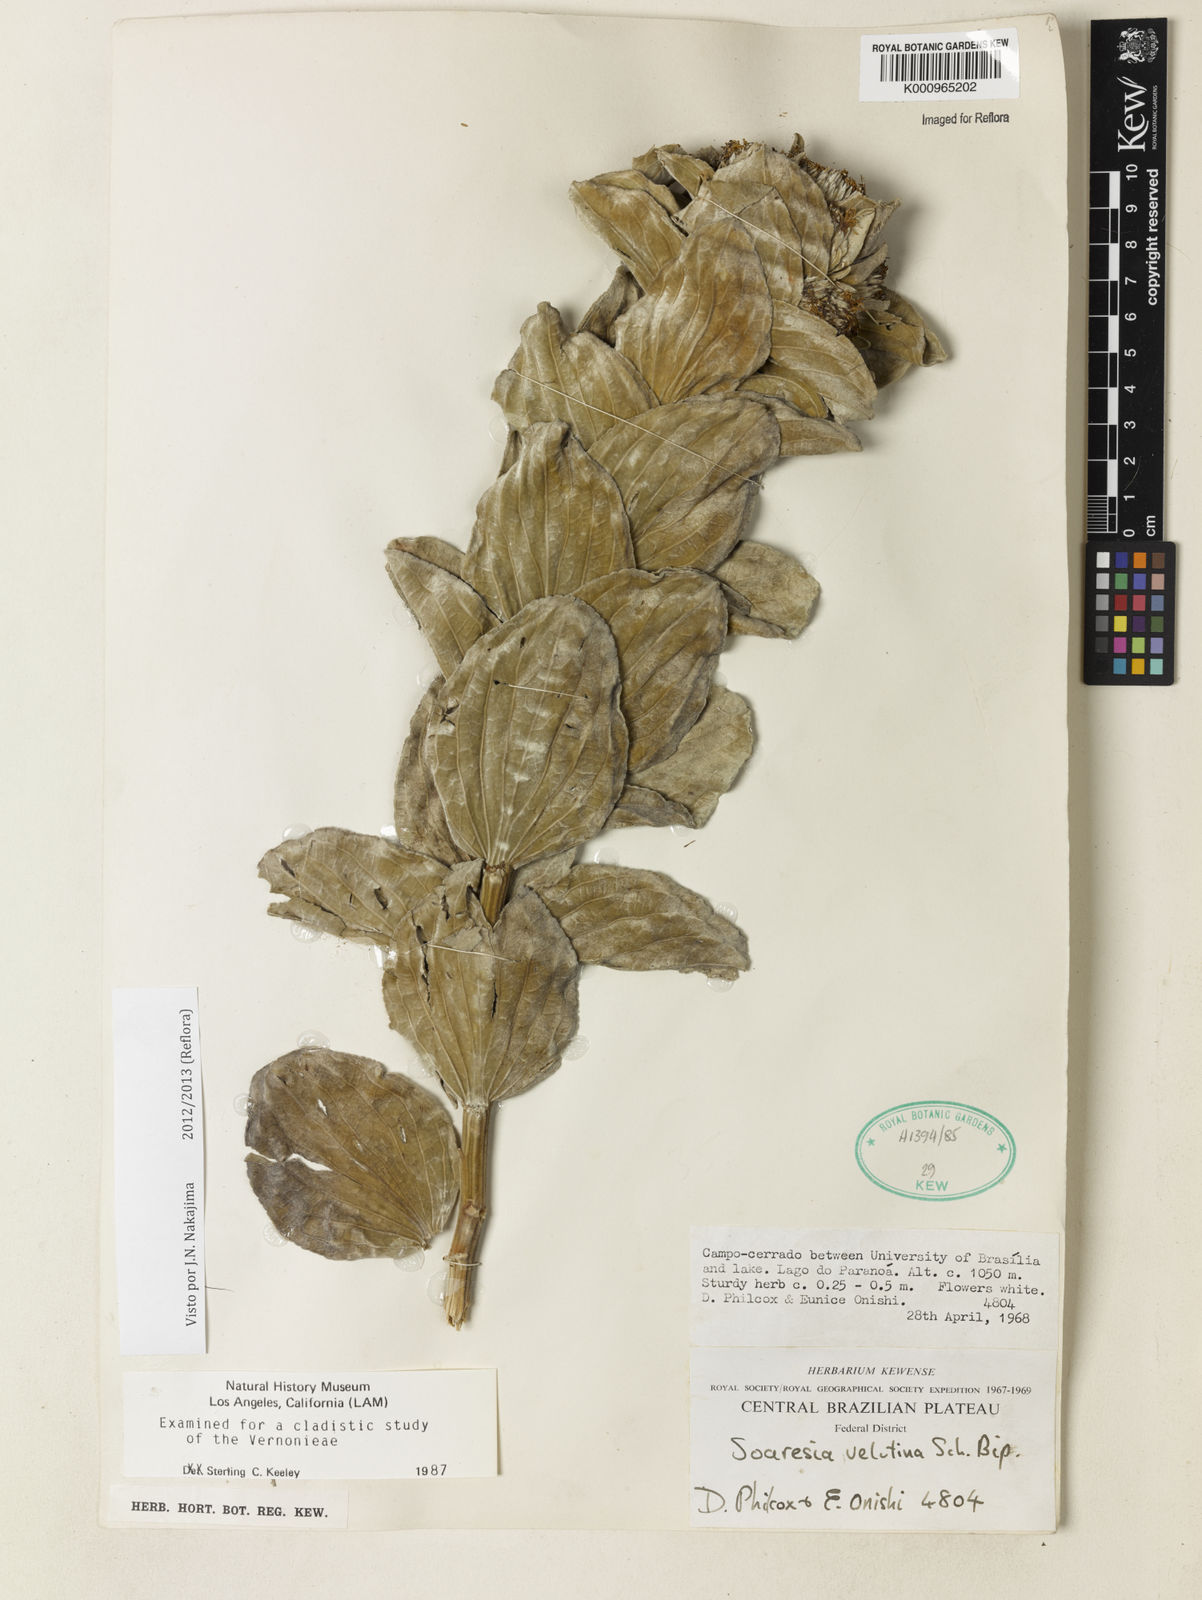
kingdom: Plantae
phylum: Tracheophyta
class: Magnoliopsida
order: Asterales
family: Asteraceae
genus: Soaresia
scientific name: Soaresia velutina
